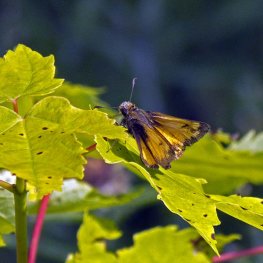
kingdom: Animalia
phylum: Arthropoda
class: Insecta
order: Lepidoptera
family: Hesperiidae
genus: Lon
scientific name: Lon hobomok
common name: Hobomok Skipper
